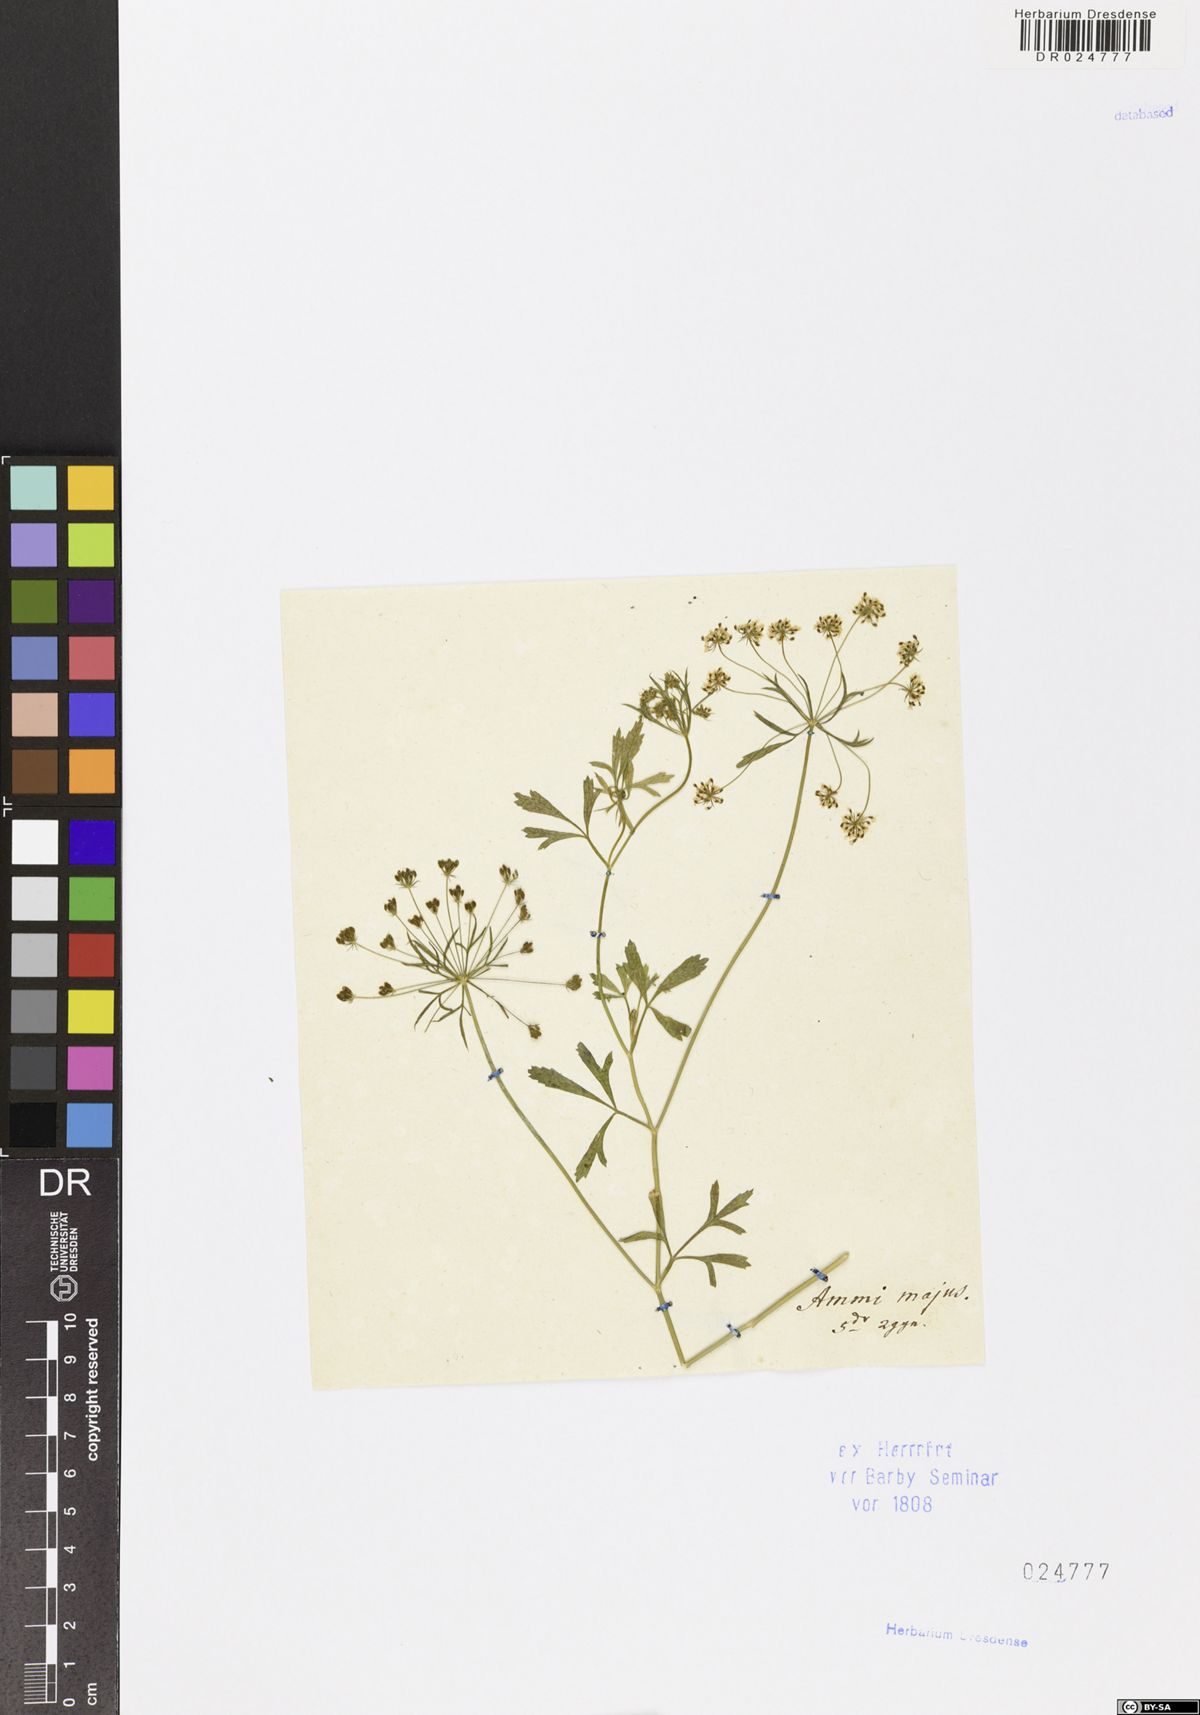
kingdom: Plantae
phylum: Tracheophyta
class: Magnoliopsida
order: Apiales
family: Apiaceae
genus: Ammi
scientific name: Ammi majus
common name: Bullwort
